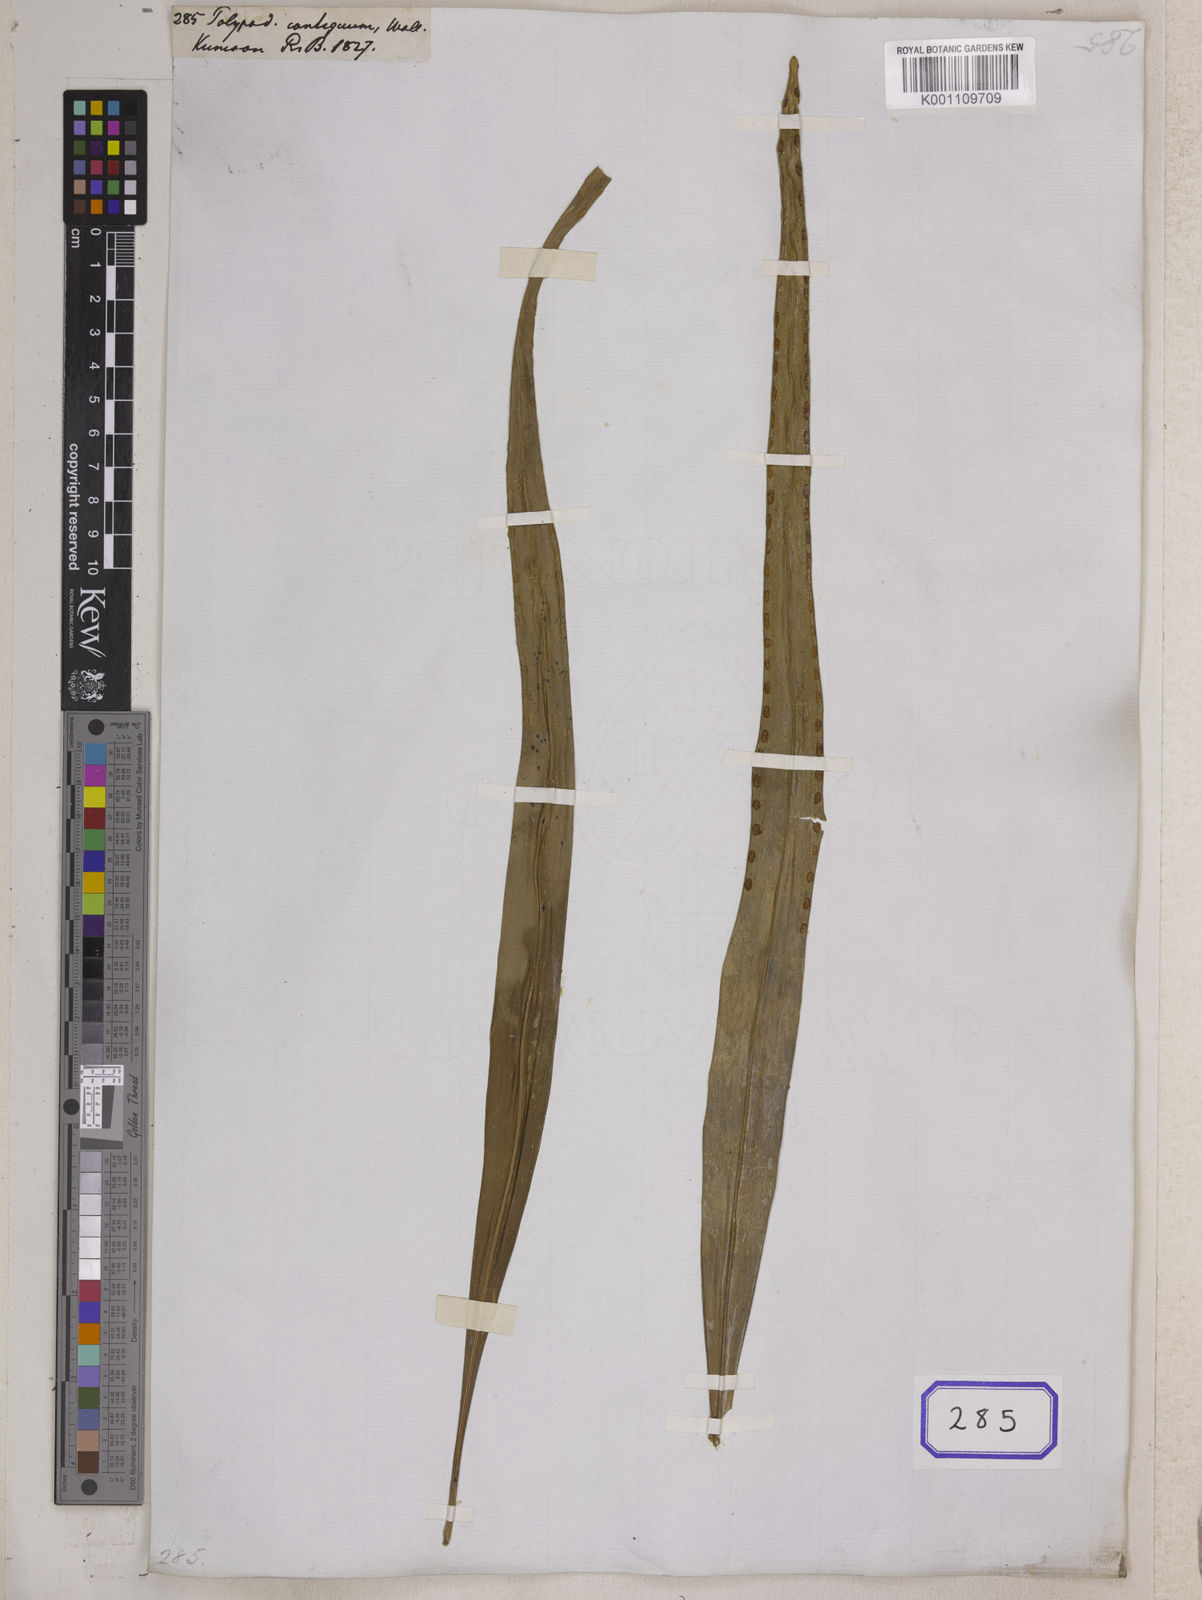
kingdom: Plantae
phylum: Tracheophyta
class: Polypodiopsida
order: Polypodiales
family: Polypodiaceae
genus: Polypodium
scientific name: Polypodium
